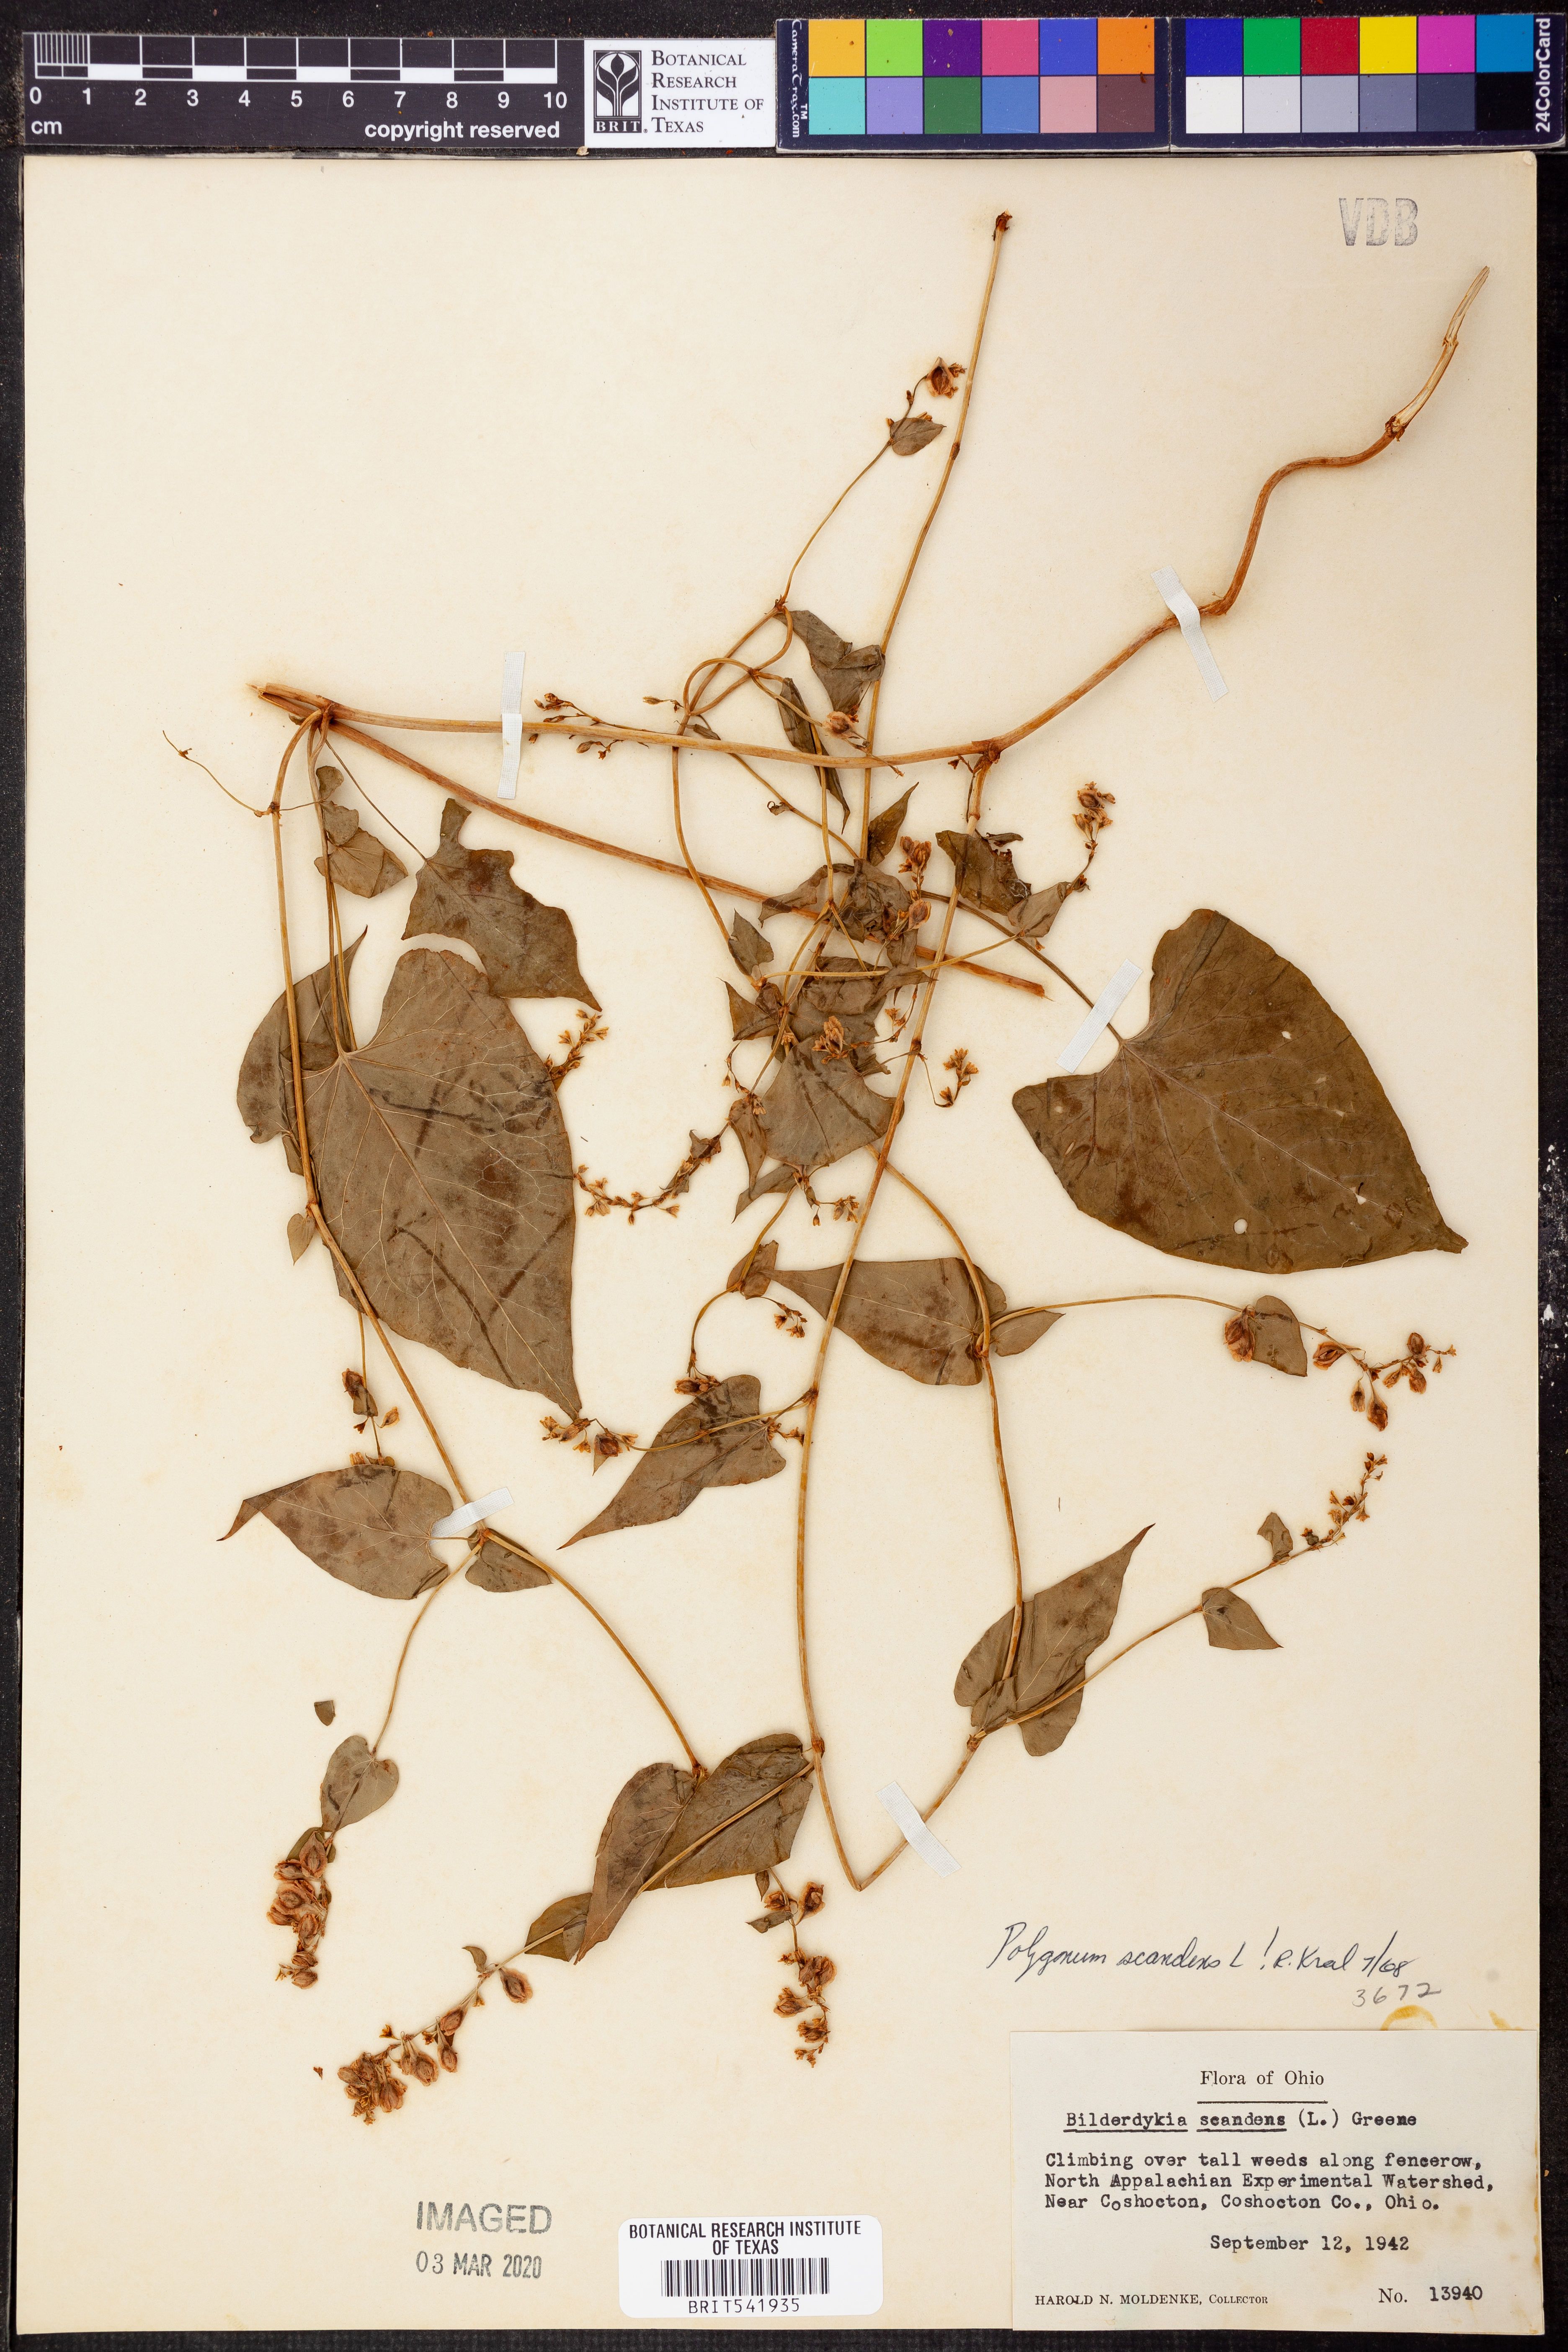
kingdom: Plantae
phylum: Tracheophyta
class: Magnoliopsida
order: Caryophyllales
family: Polygonaceae
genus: Fallopia
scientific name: Fallopia scandens
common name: Climbing false buckwheat
